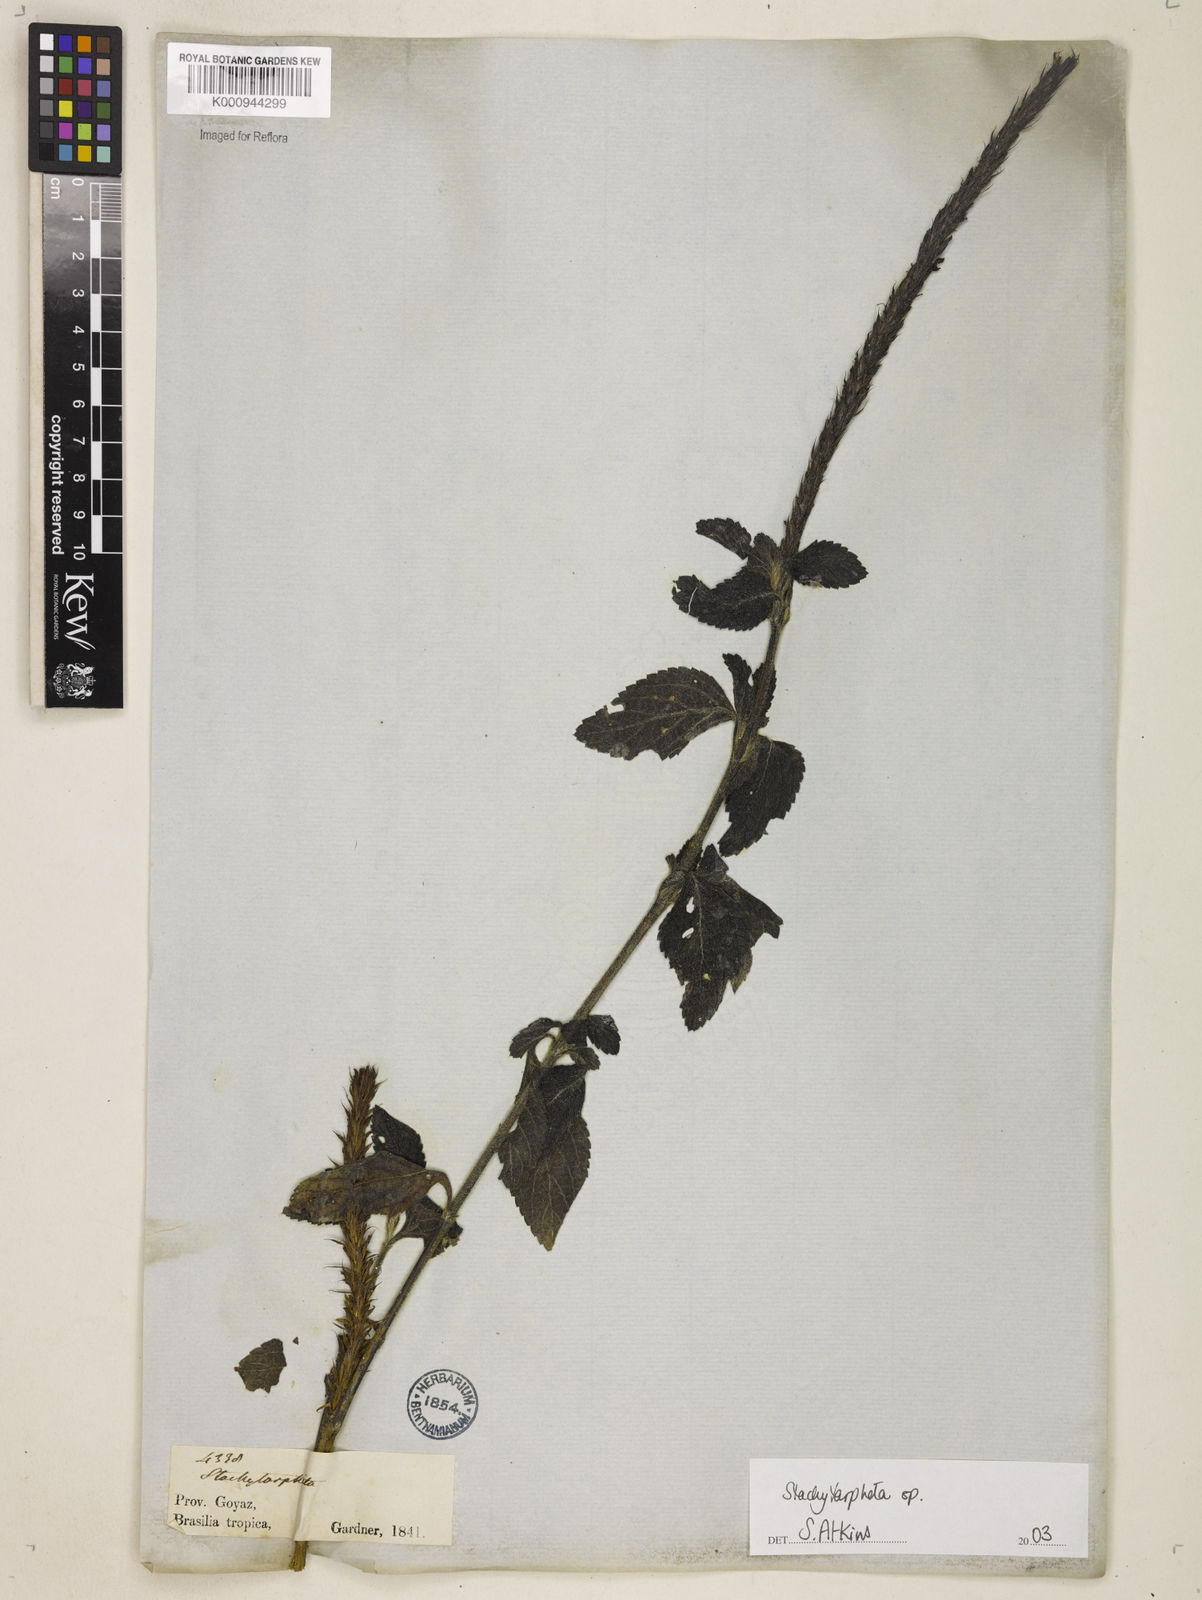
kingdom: Plantae
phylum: Tracheophyta
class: Magnoliopsida
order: Lamiales
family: Verbenaceae
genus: Stachytarpheta
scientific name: Stachytarpheta
